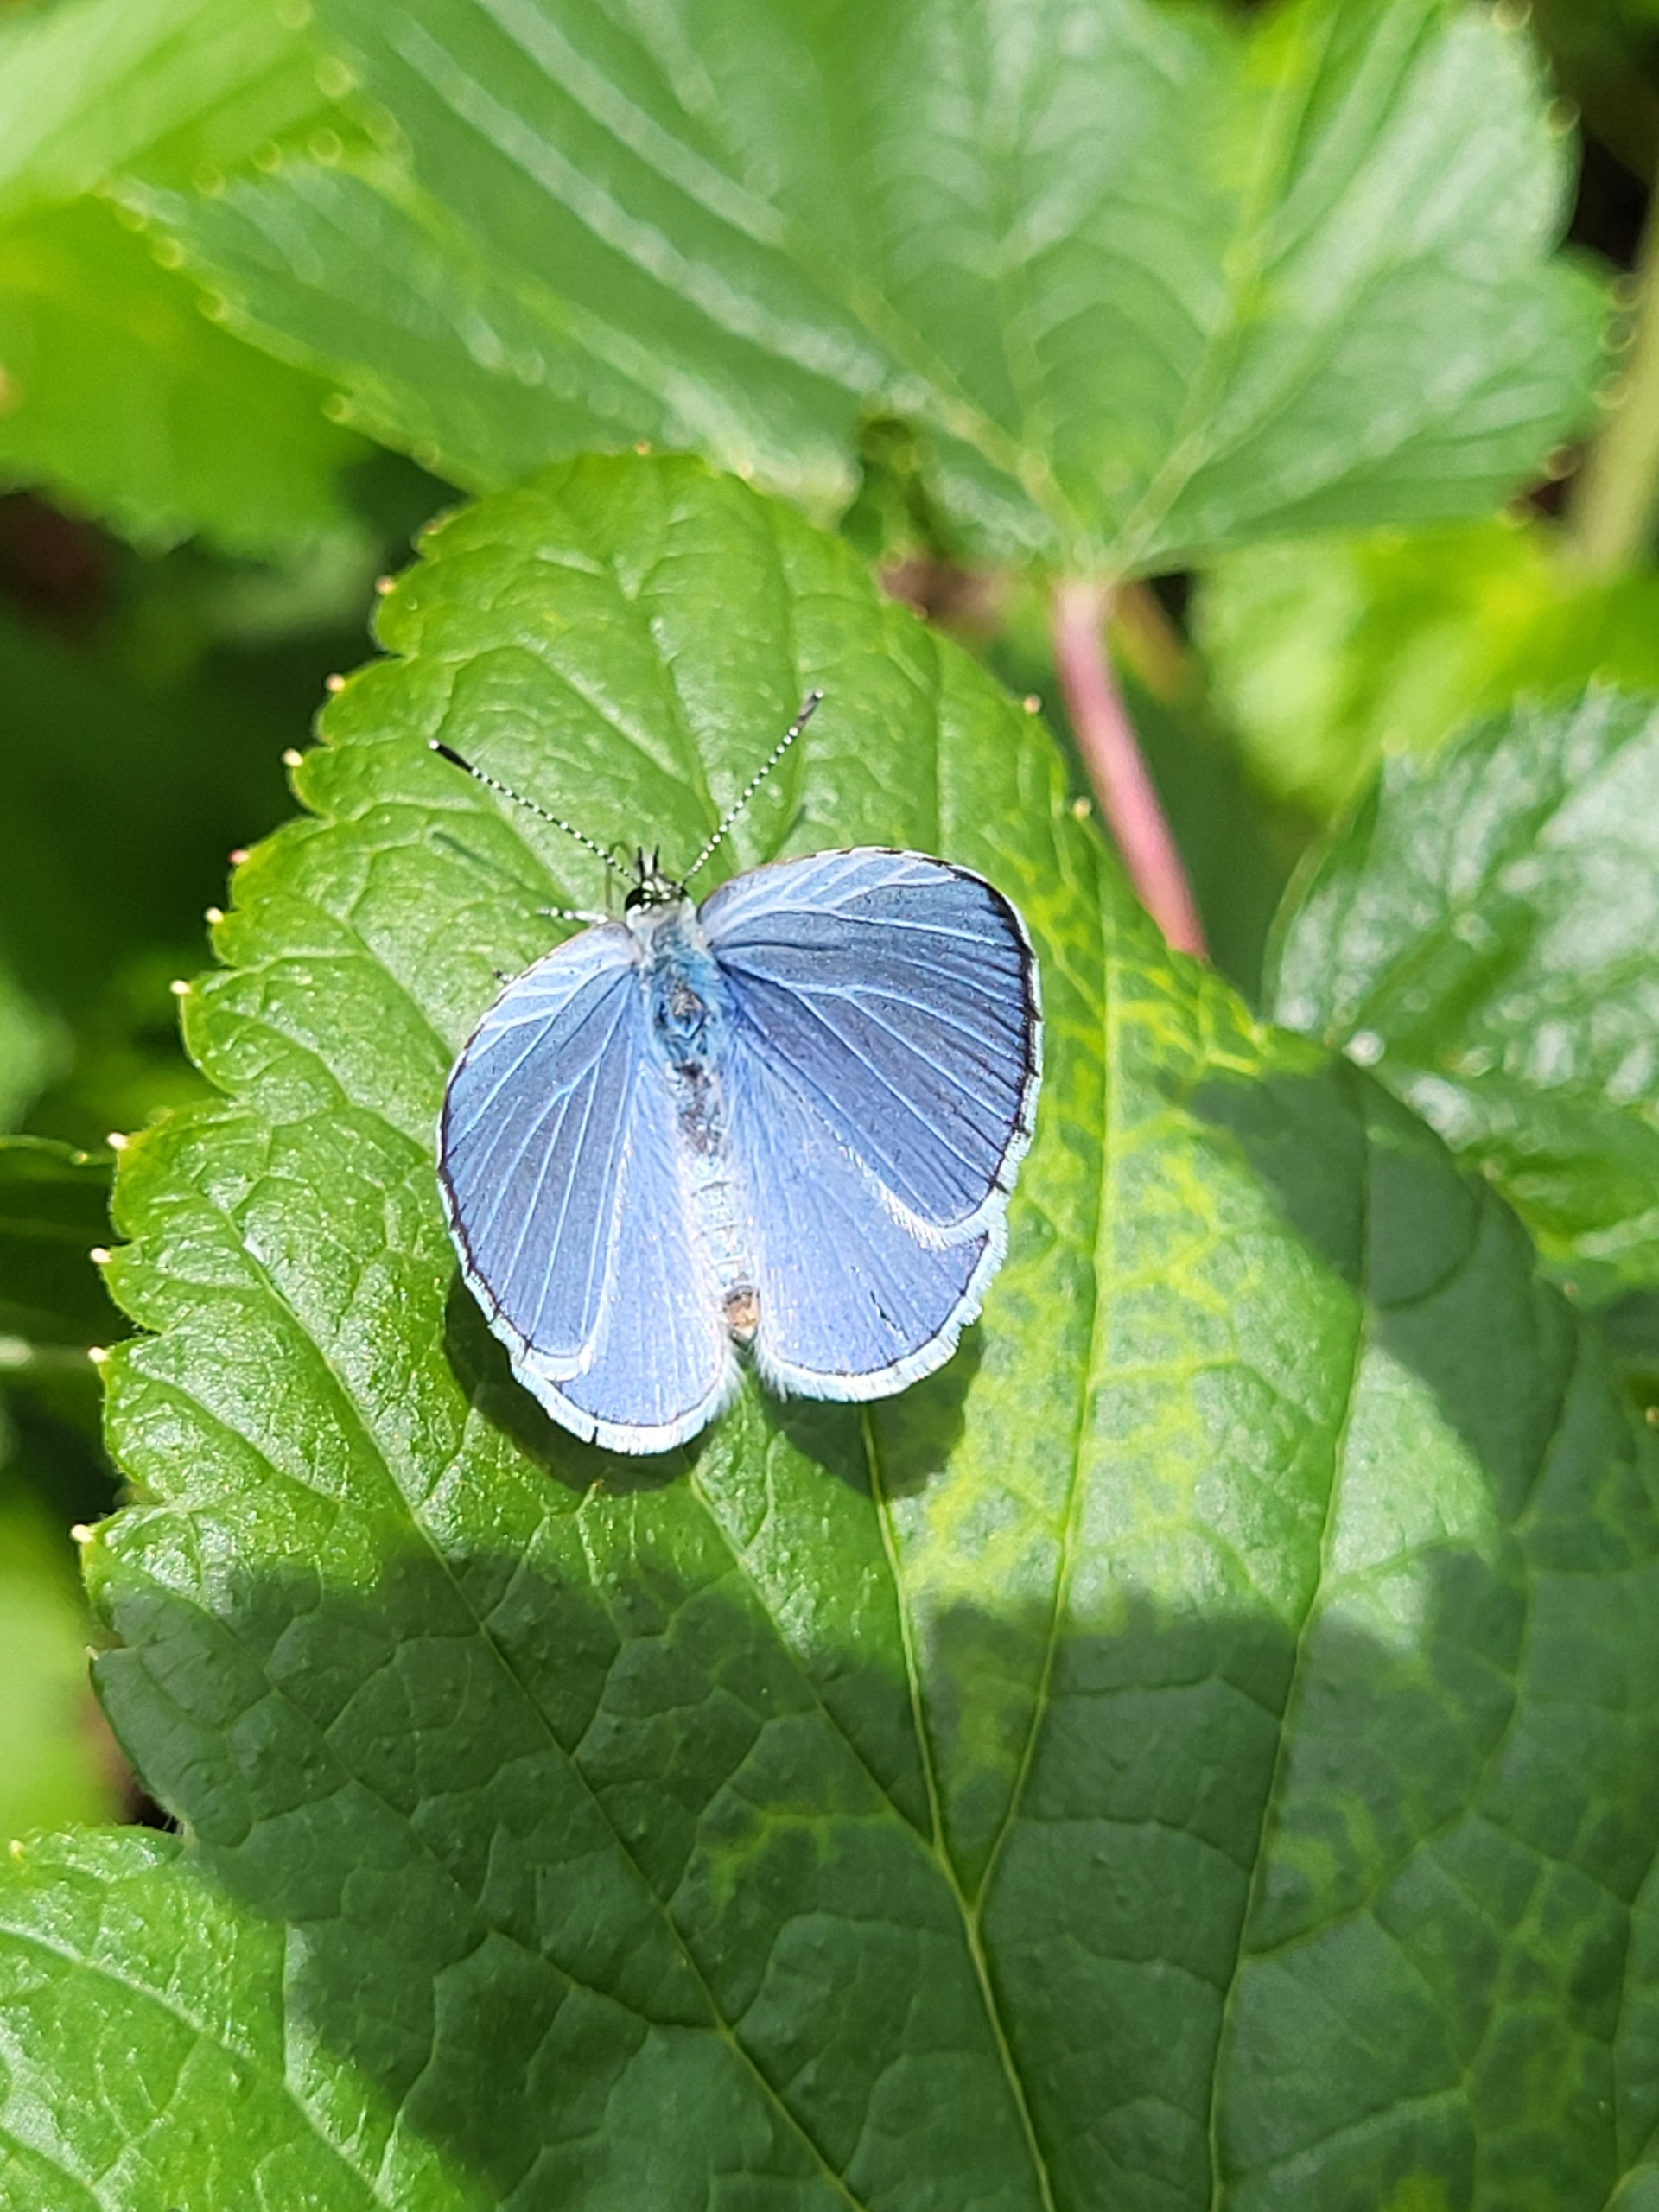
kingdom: Animalia
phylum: Arthropoda
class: Insecta
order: Lepidoptera
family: Lycaenidae
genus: Celastrina
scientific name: Celastrina argiolus
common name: Skovblåfugl
